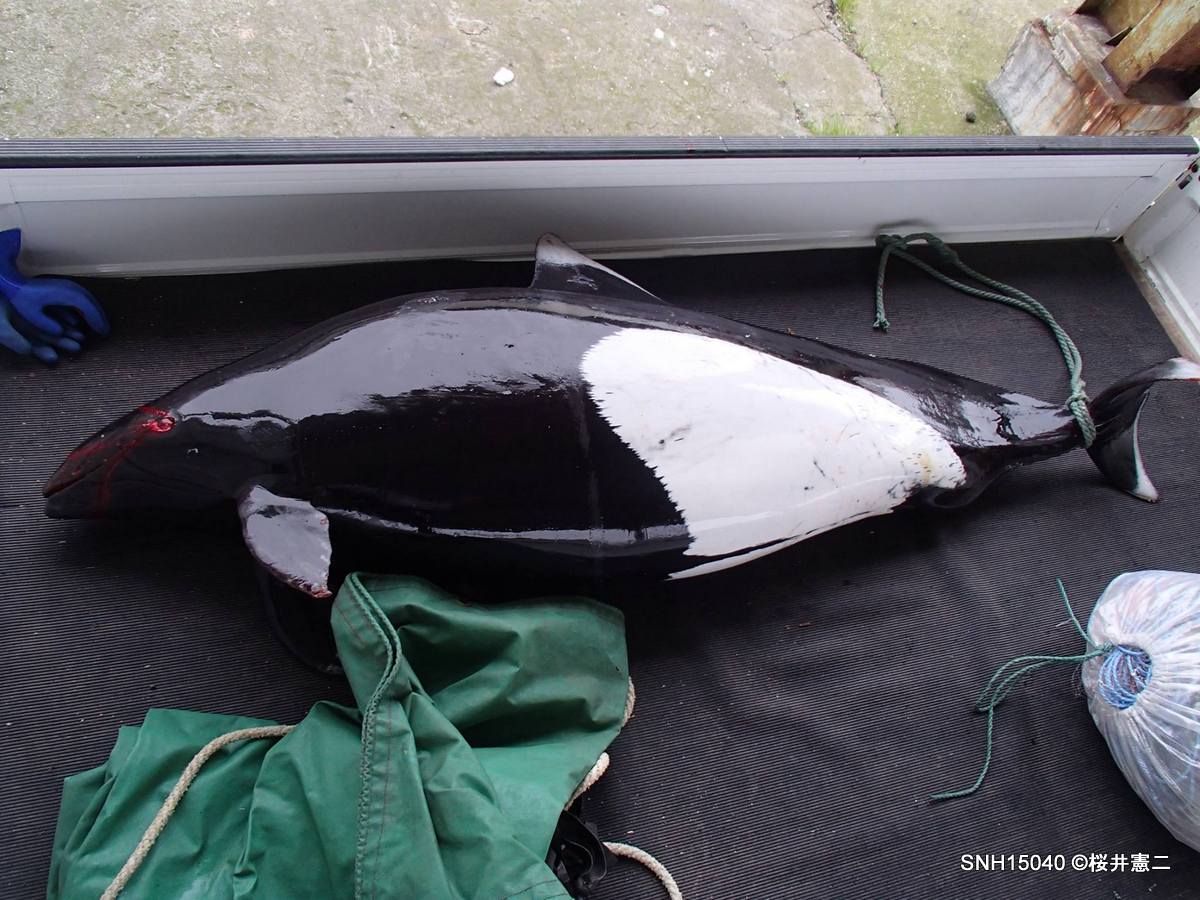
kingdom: Animalia
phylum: Chordata
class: Mammalia
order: Cetacea
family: Phocoenidae
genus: Phocoenoides
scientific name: Phocoenoides dalli
